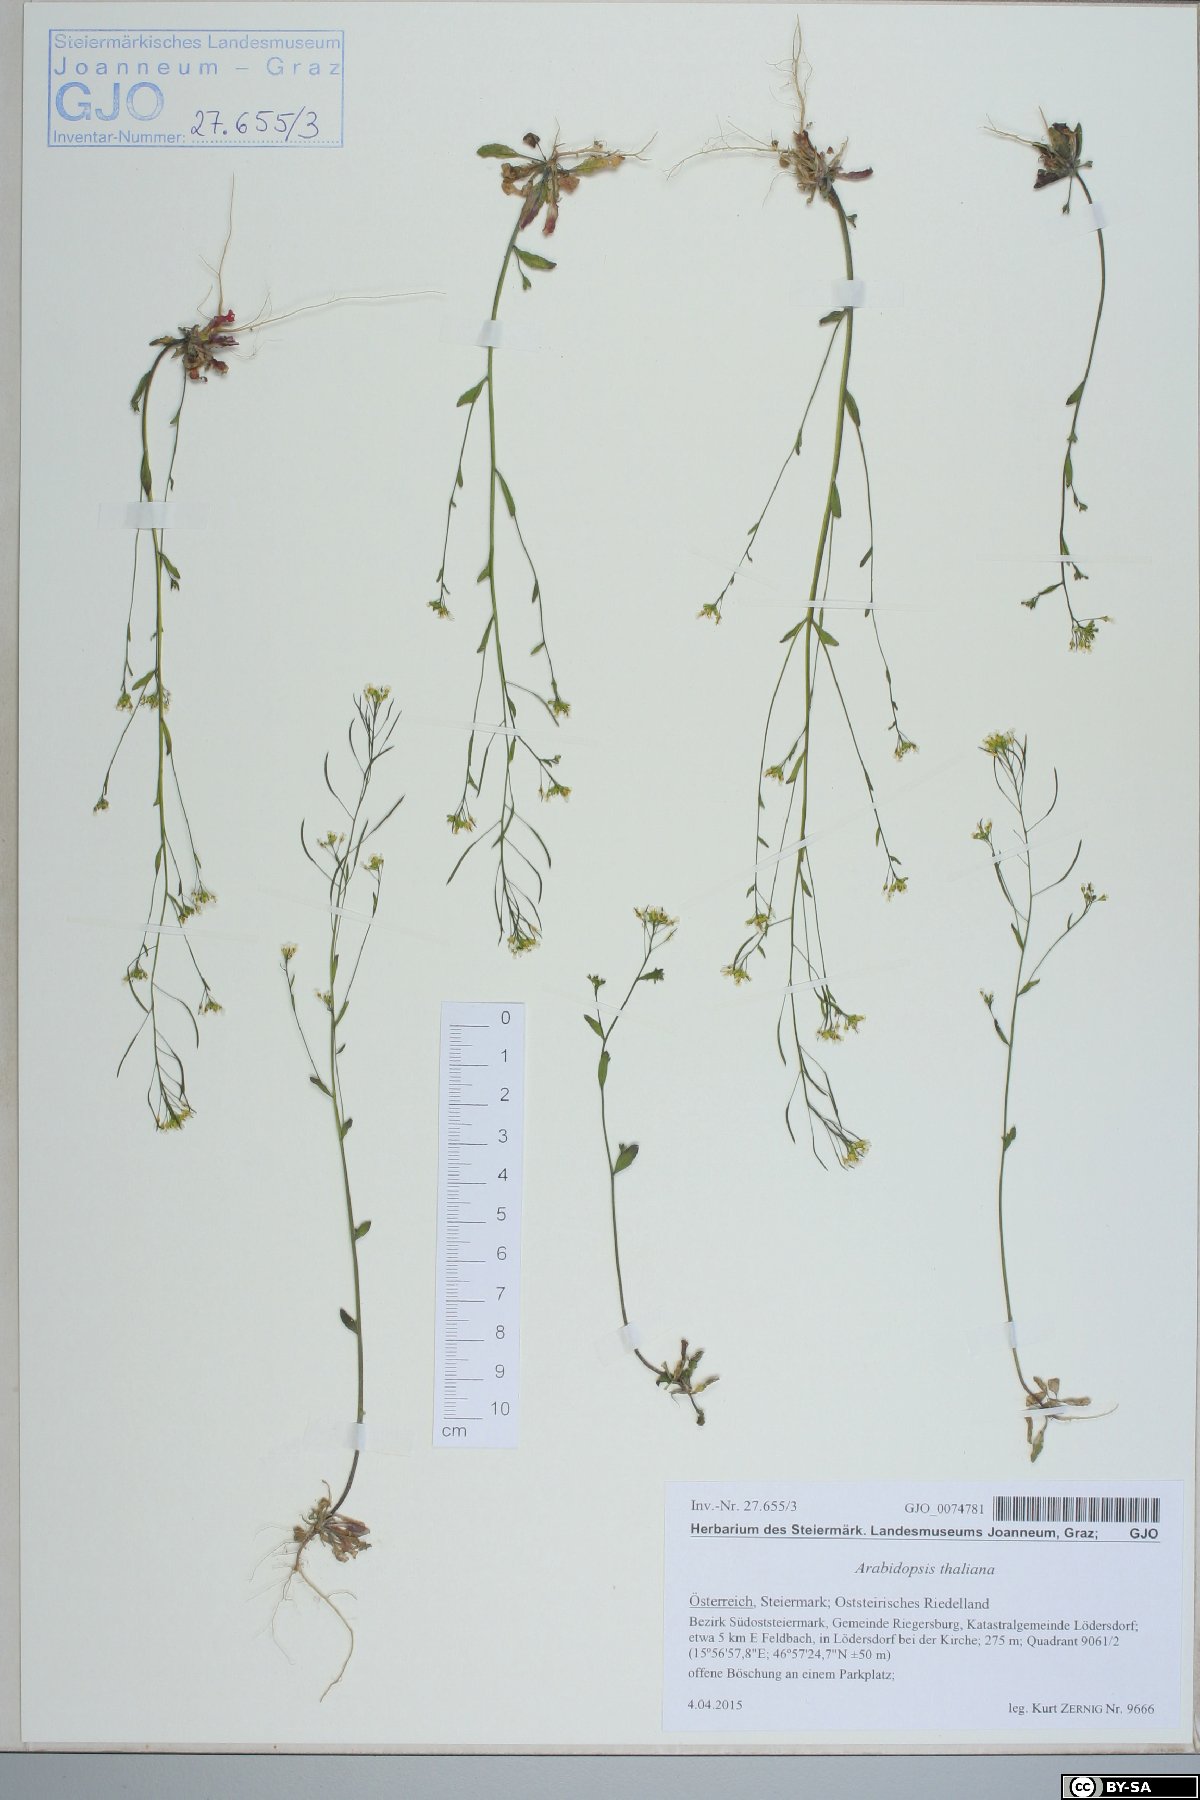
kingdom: Plantae
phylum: Tracheophyta
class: Magnoliopsida
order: Brassicales
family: Brassicaceae
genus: Arabidopsis
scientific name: Arabidopsis thaliana
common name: Thale cress
